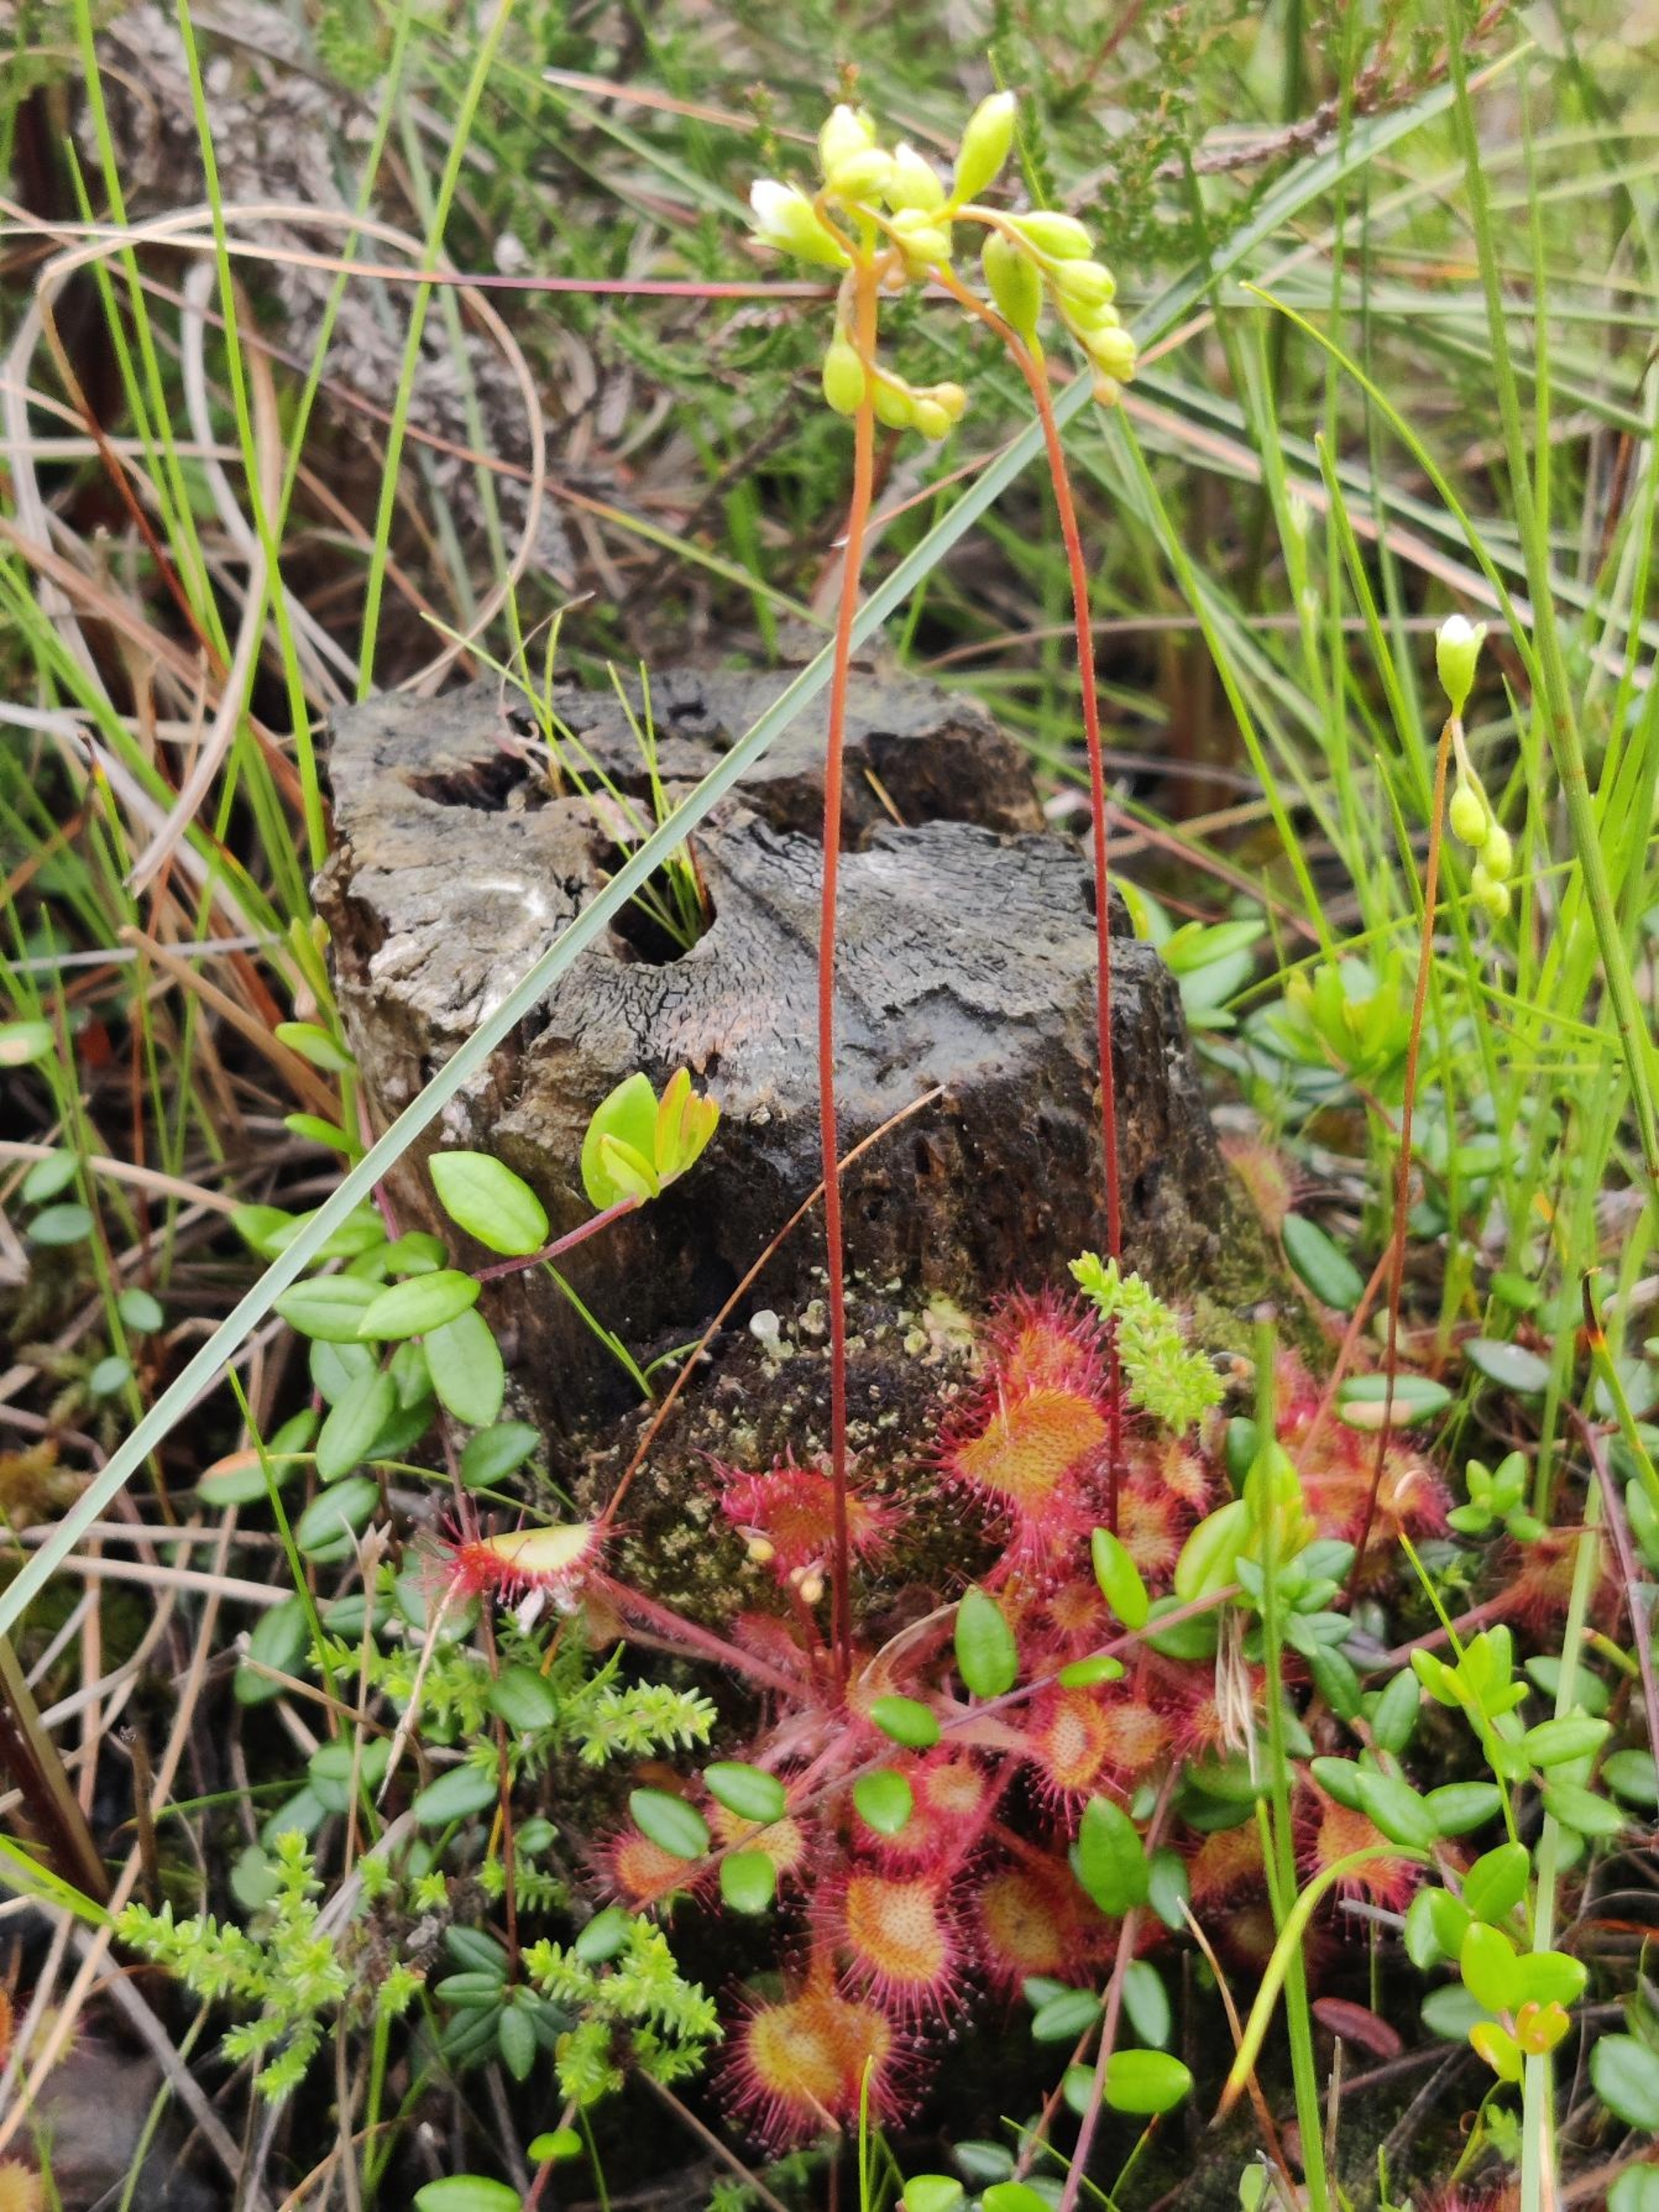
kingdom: Plantae
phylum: Tracheophyta
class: Magnoliopsida
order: Caryophyllales
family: Droseraceae
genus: Drosera
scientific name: Drosera rotundifolia
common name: Rundbladet soldug
